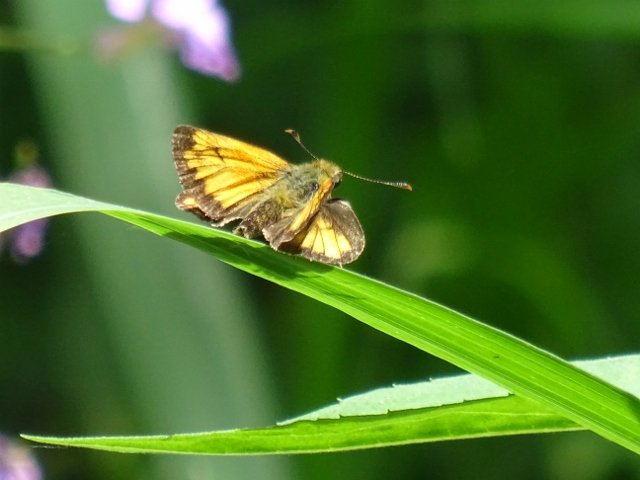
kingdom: Animalia
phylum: Arthropoda
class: Insecta
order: Lepidoptera
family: Hesperiidae
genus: Lon
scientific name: Lon hobomok
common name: Hobomok Skipper
